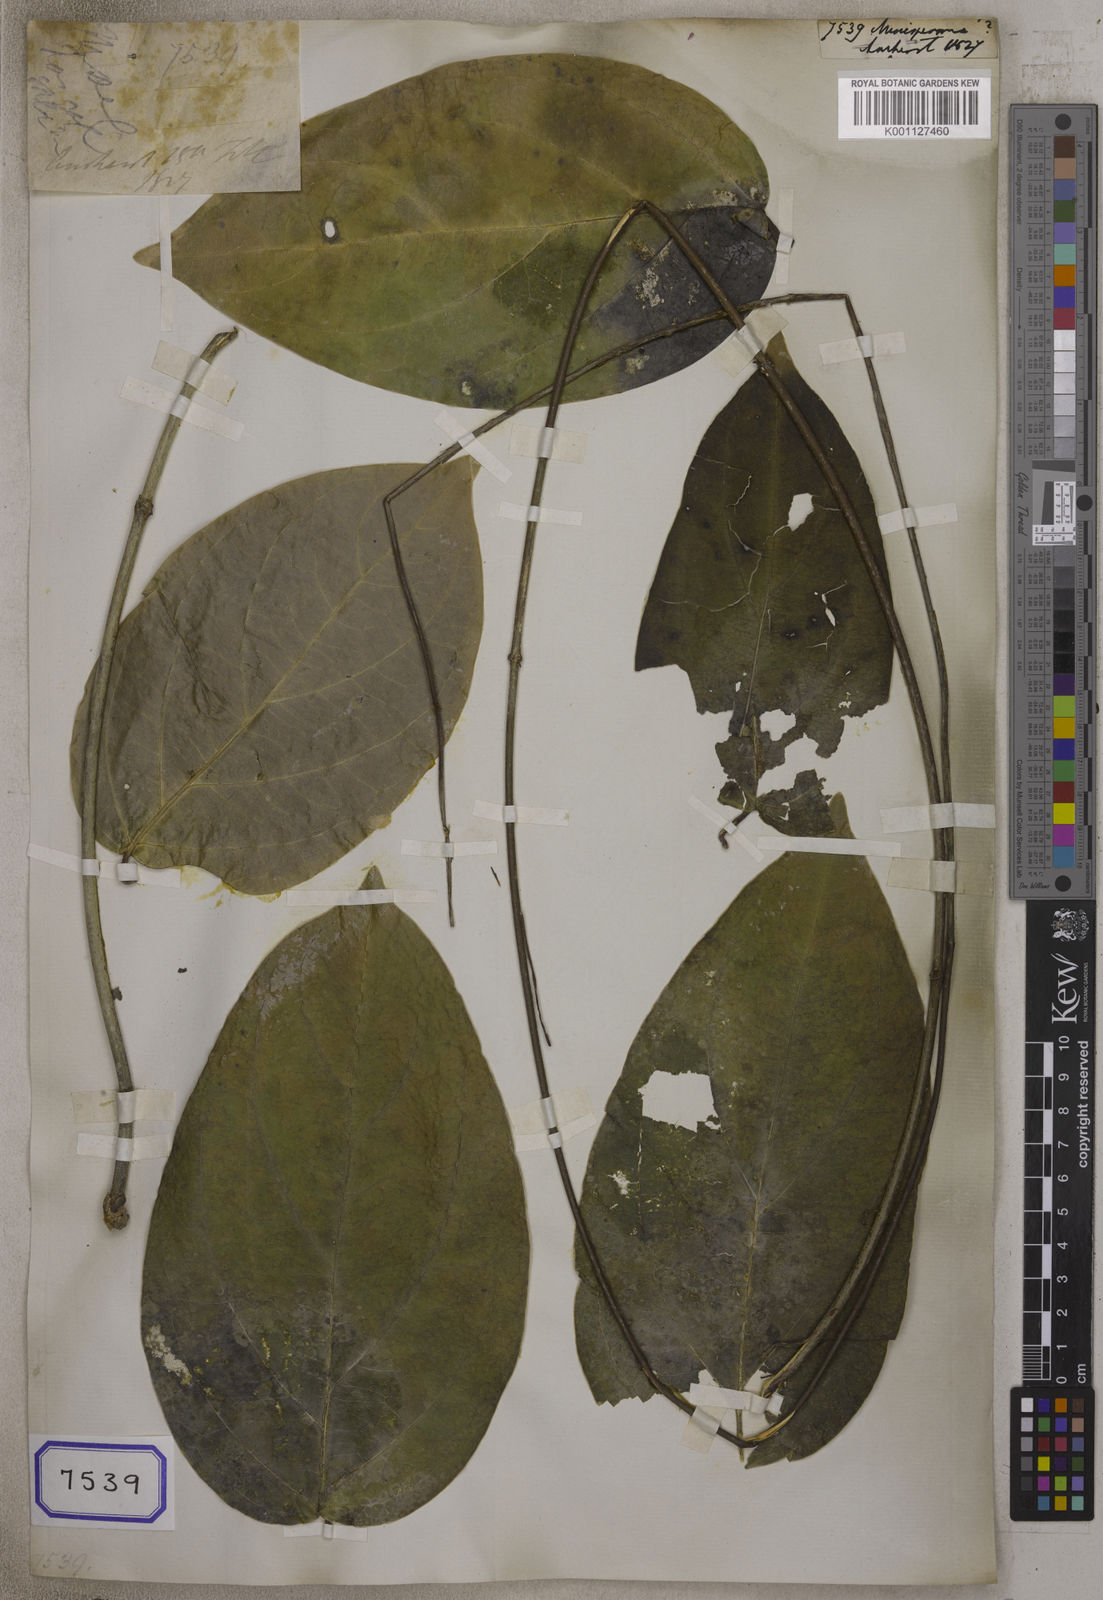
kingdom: Plantae
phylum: Tracheophyta
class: Magnoliopsida
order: Ranunculales
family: Menispermaceae
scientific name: Menispermaceae
